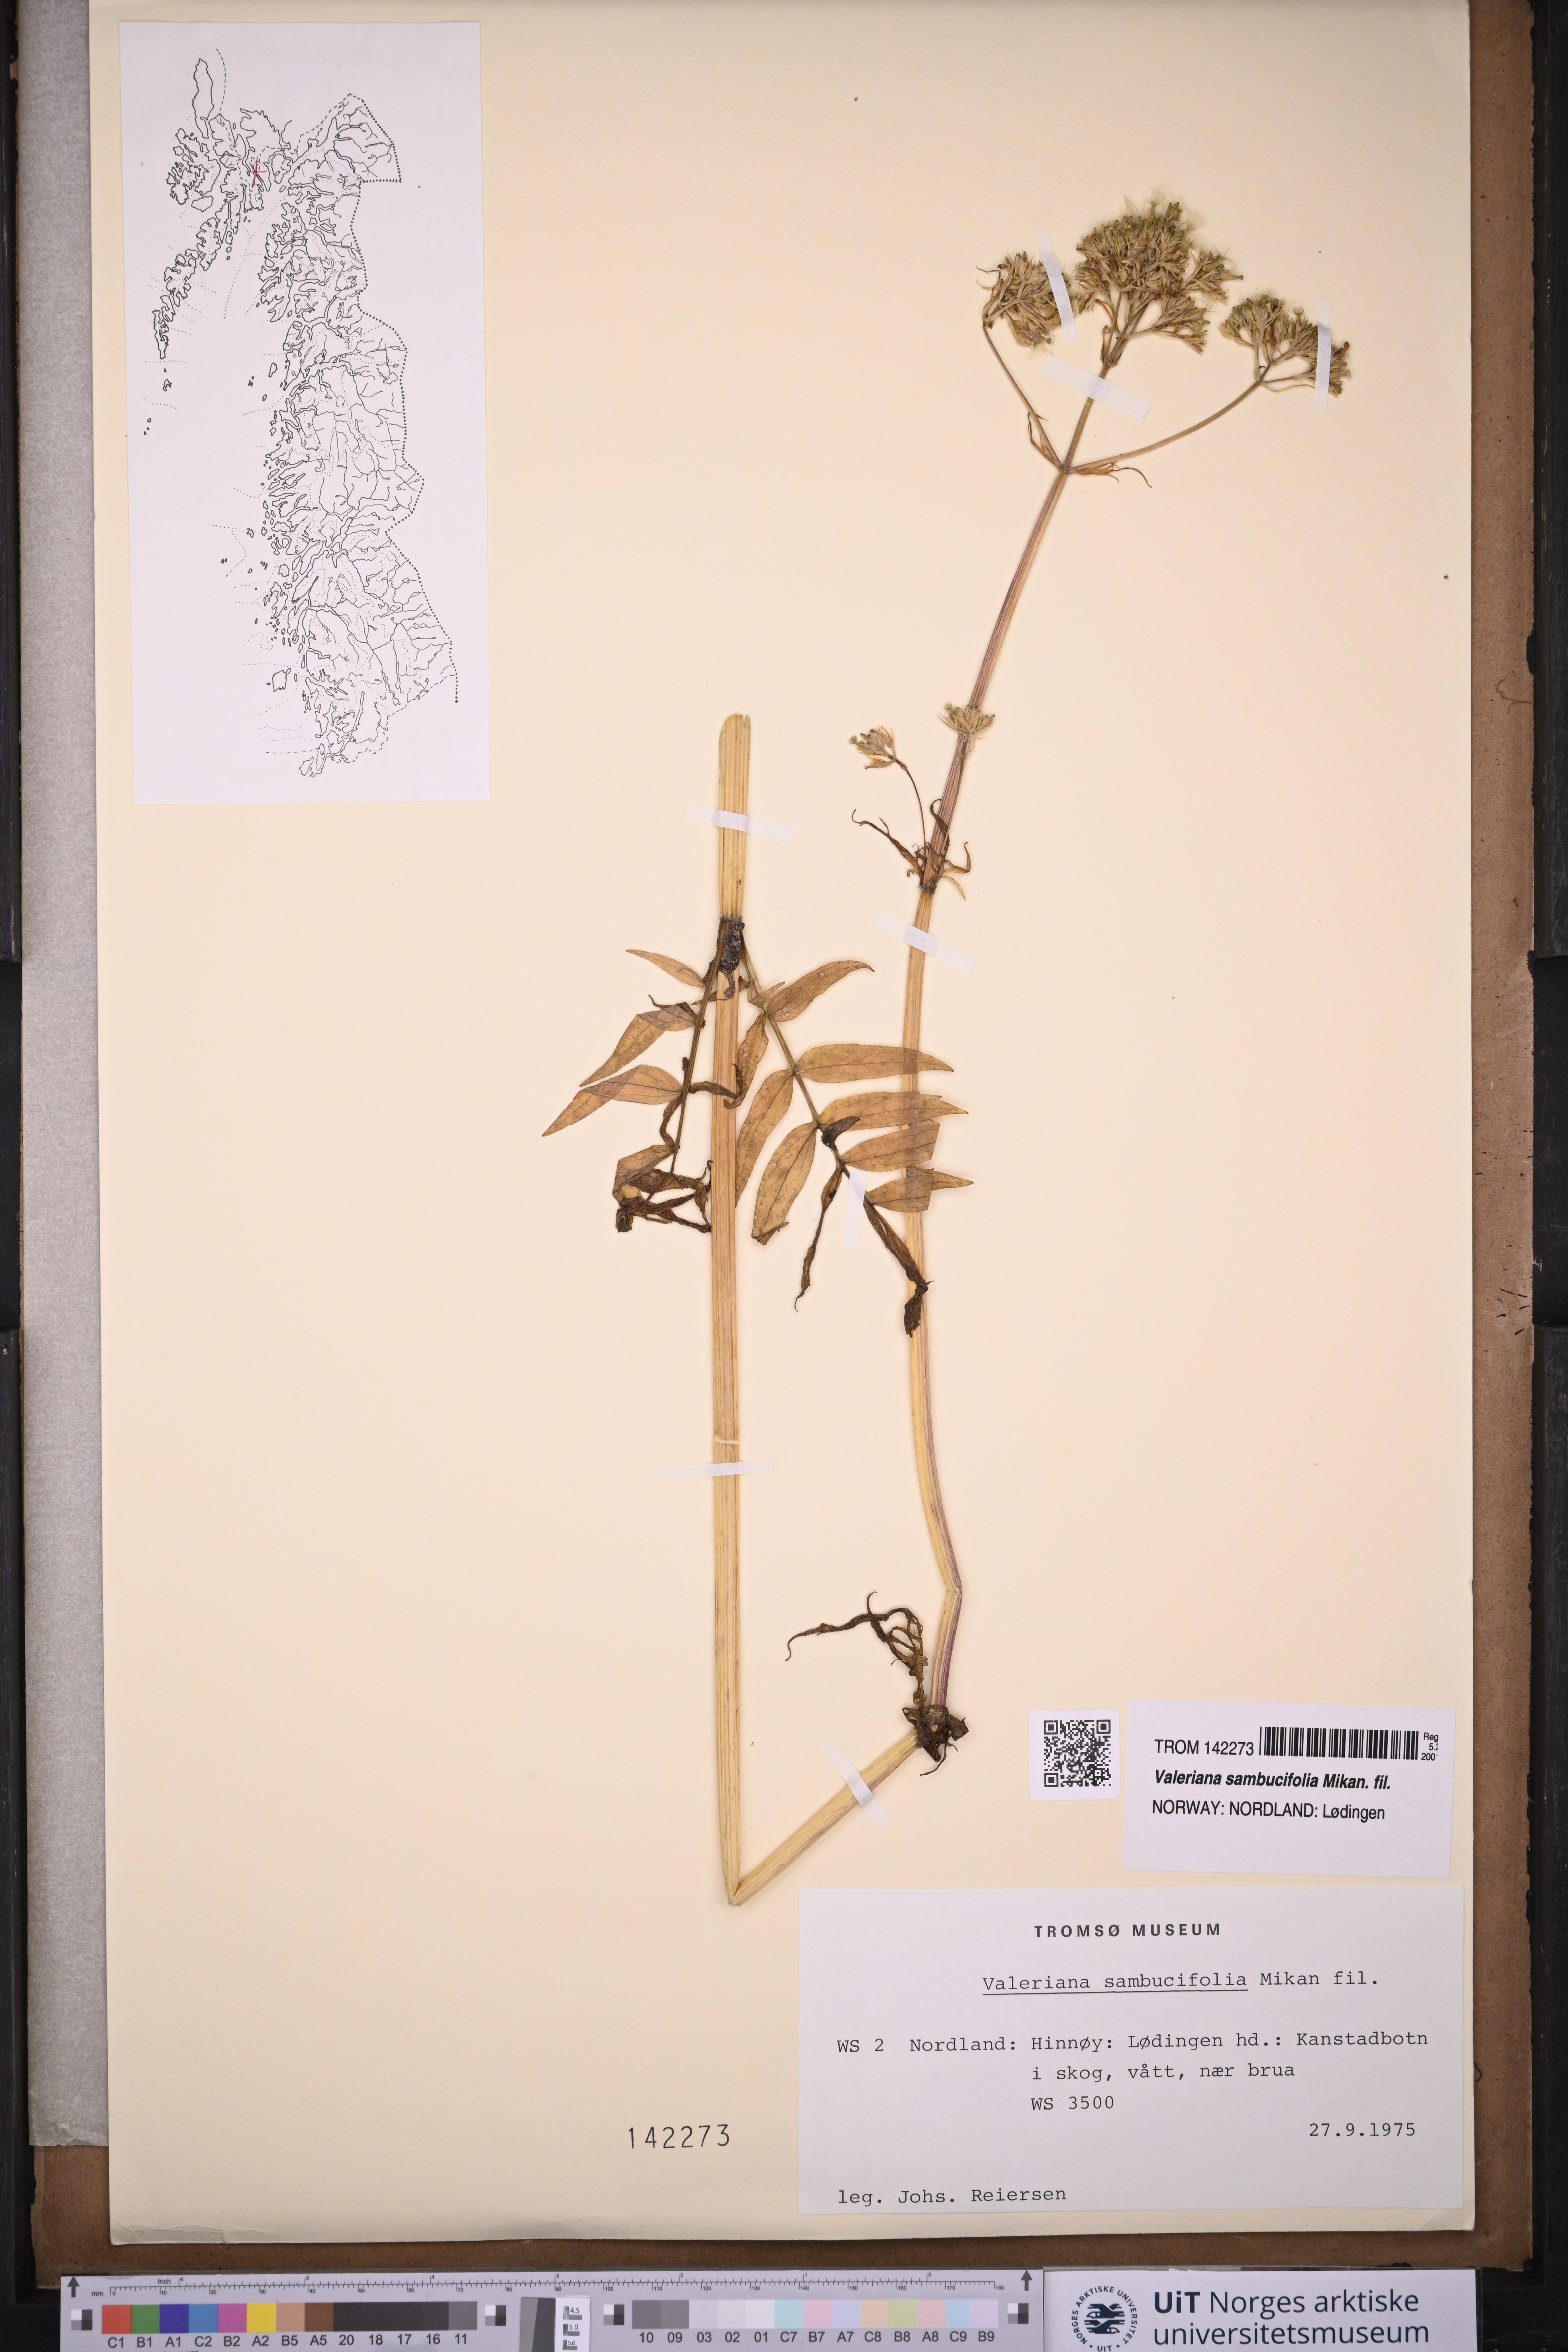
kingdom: Plantae
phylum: Tracheophyta
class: Magnoliopsida
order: Dipsacales
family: Caprifoliaceae
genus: Valeriana
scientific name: Valeriana excelsa
